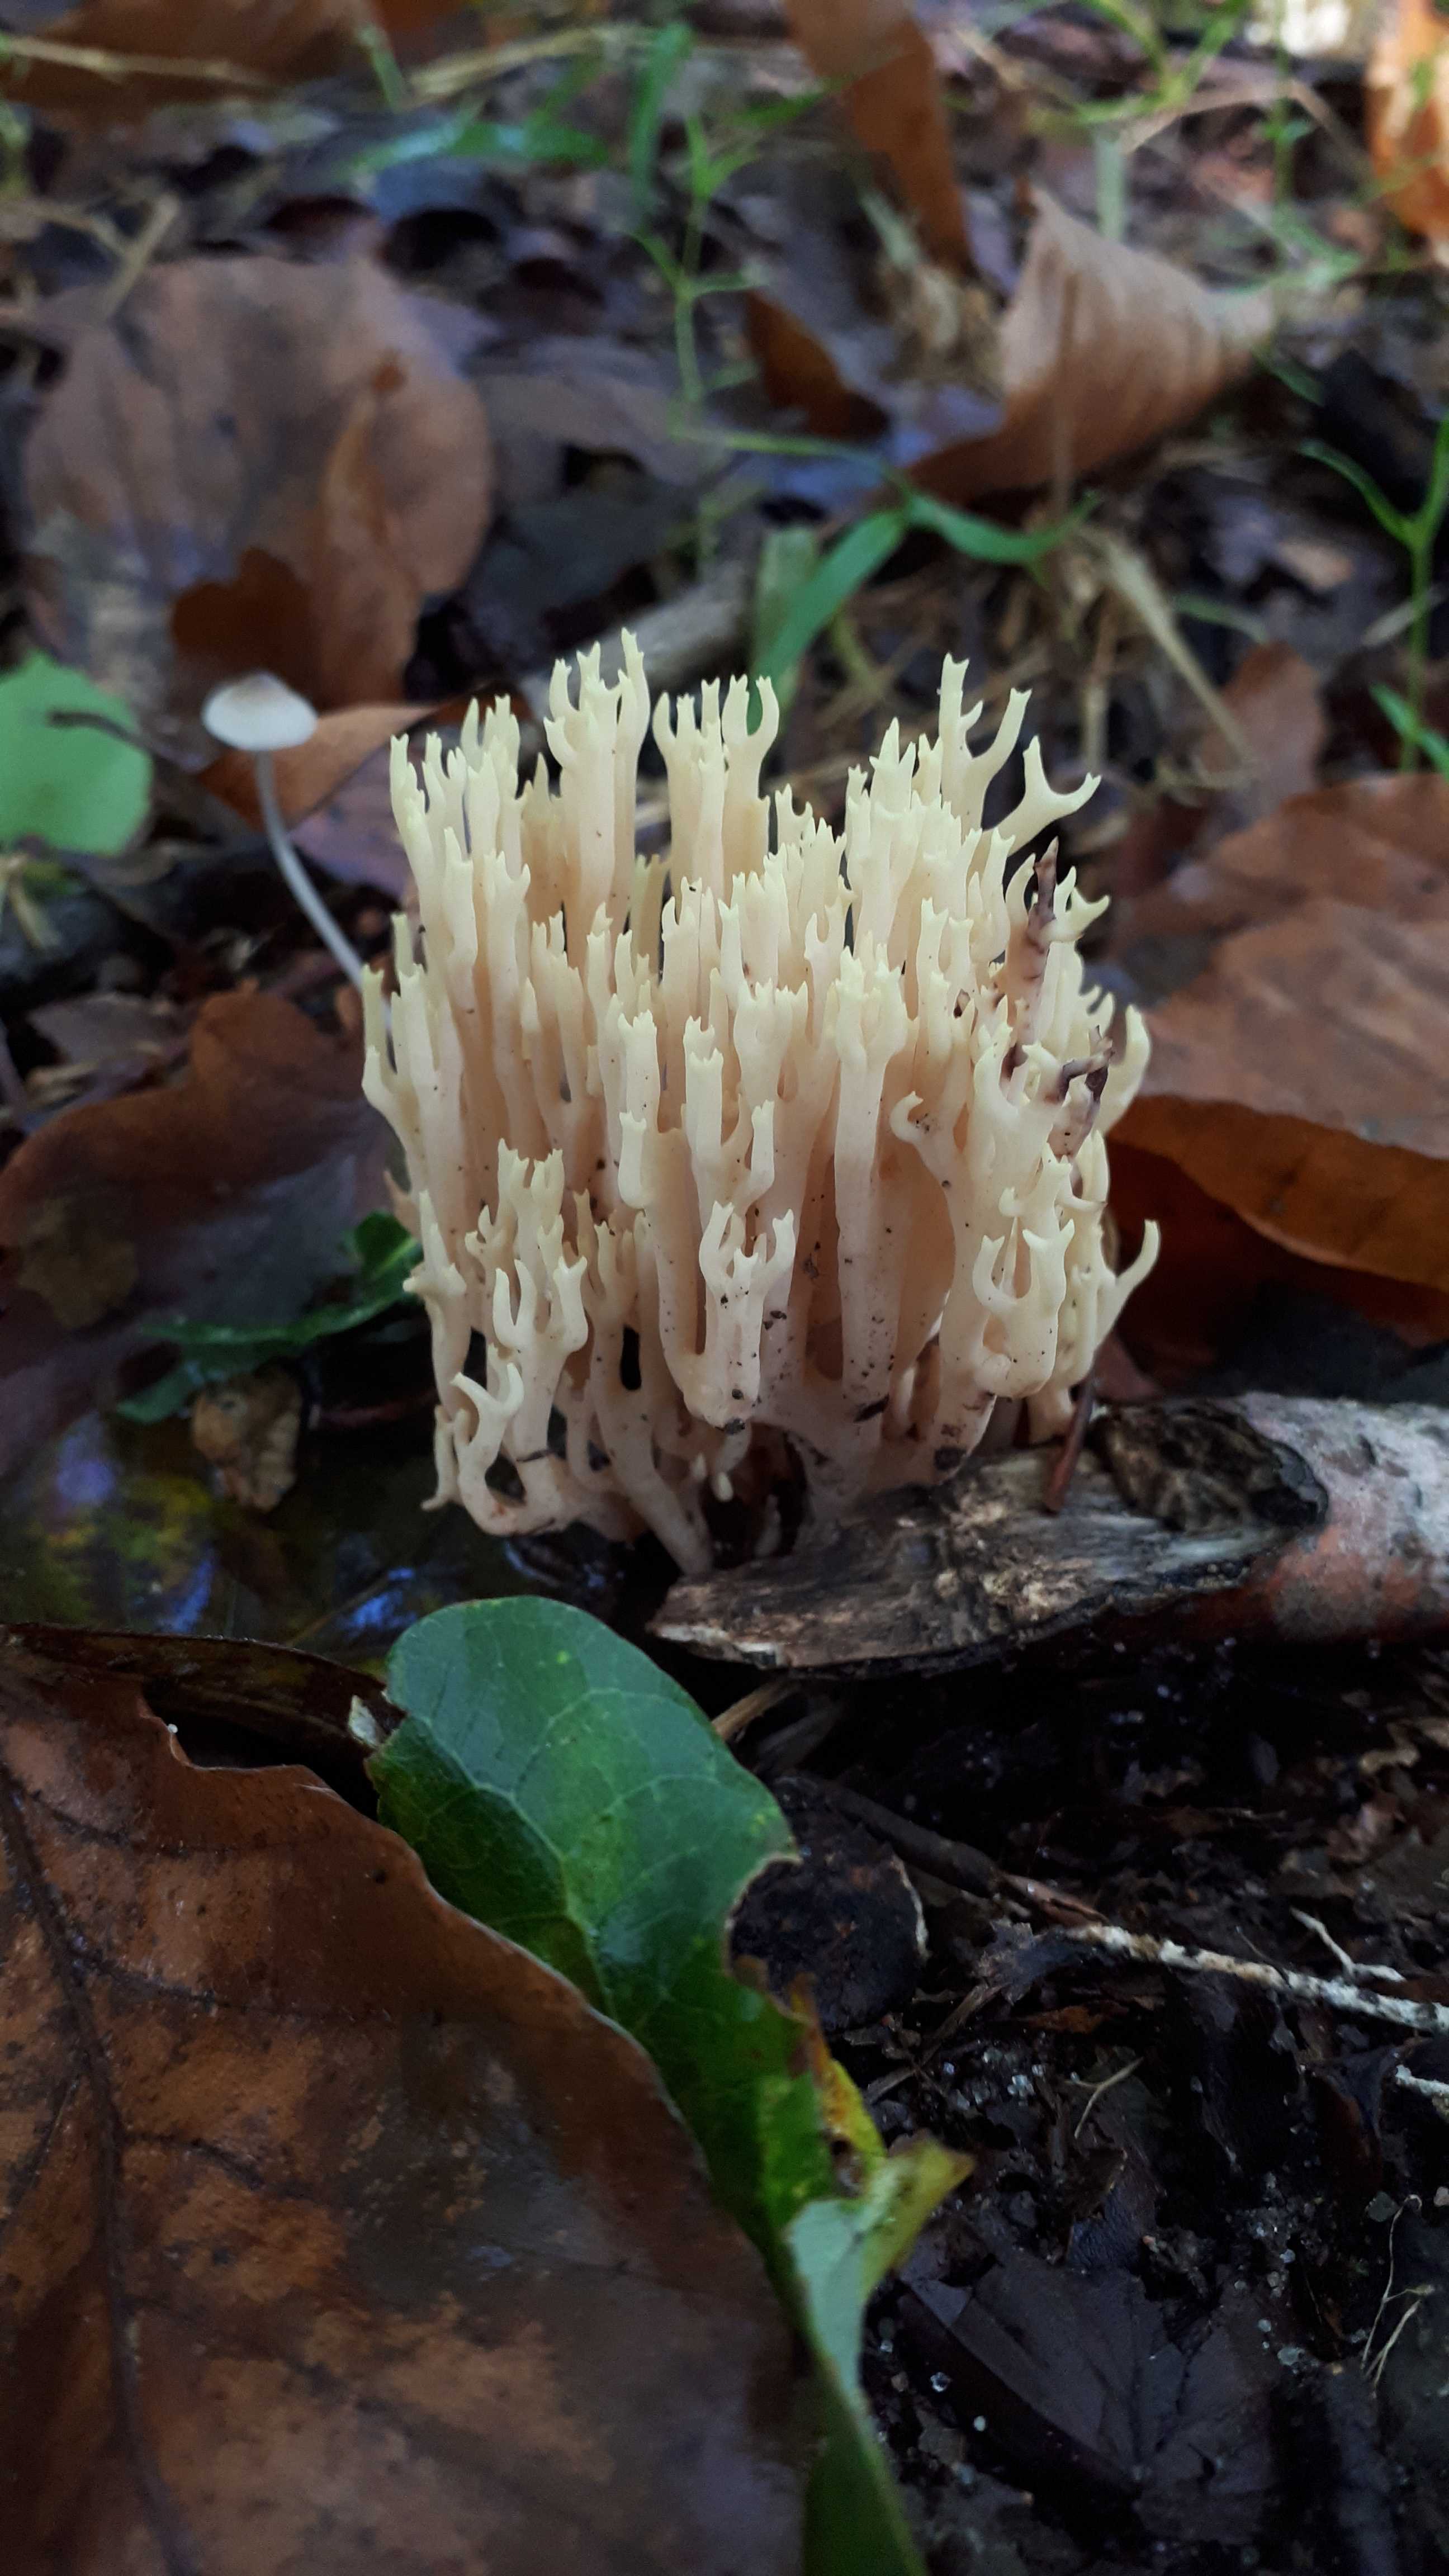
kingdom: Fungi
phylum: Basidiomycota
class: Agaricomycetes
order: Gomphales
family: Gomphaceae
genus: Ramaria
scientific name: Ramaria stricta
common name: rank koralsvamp
